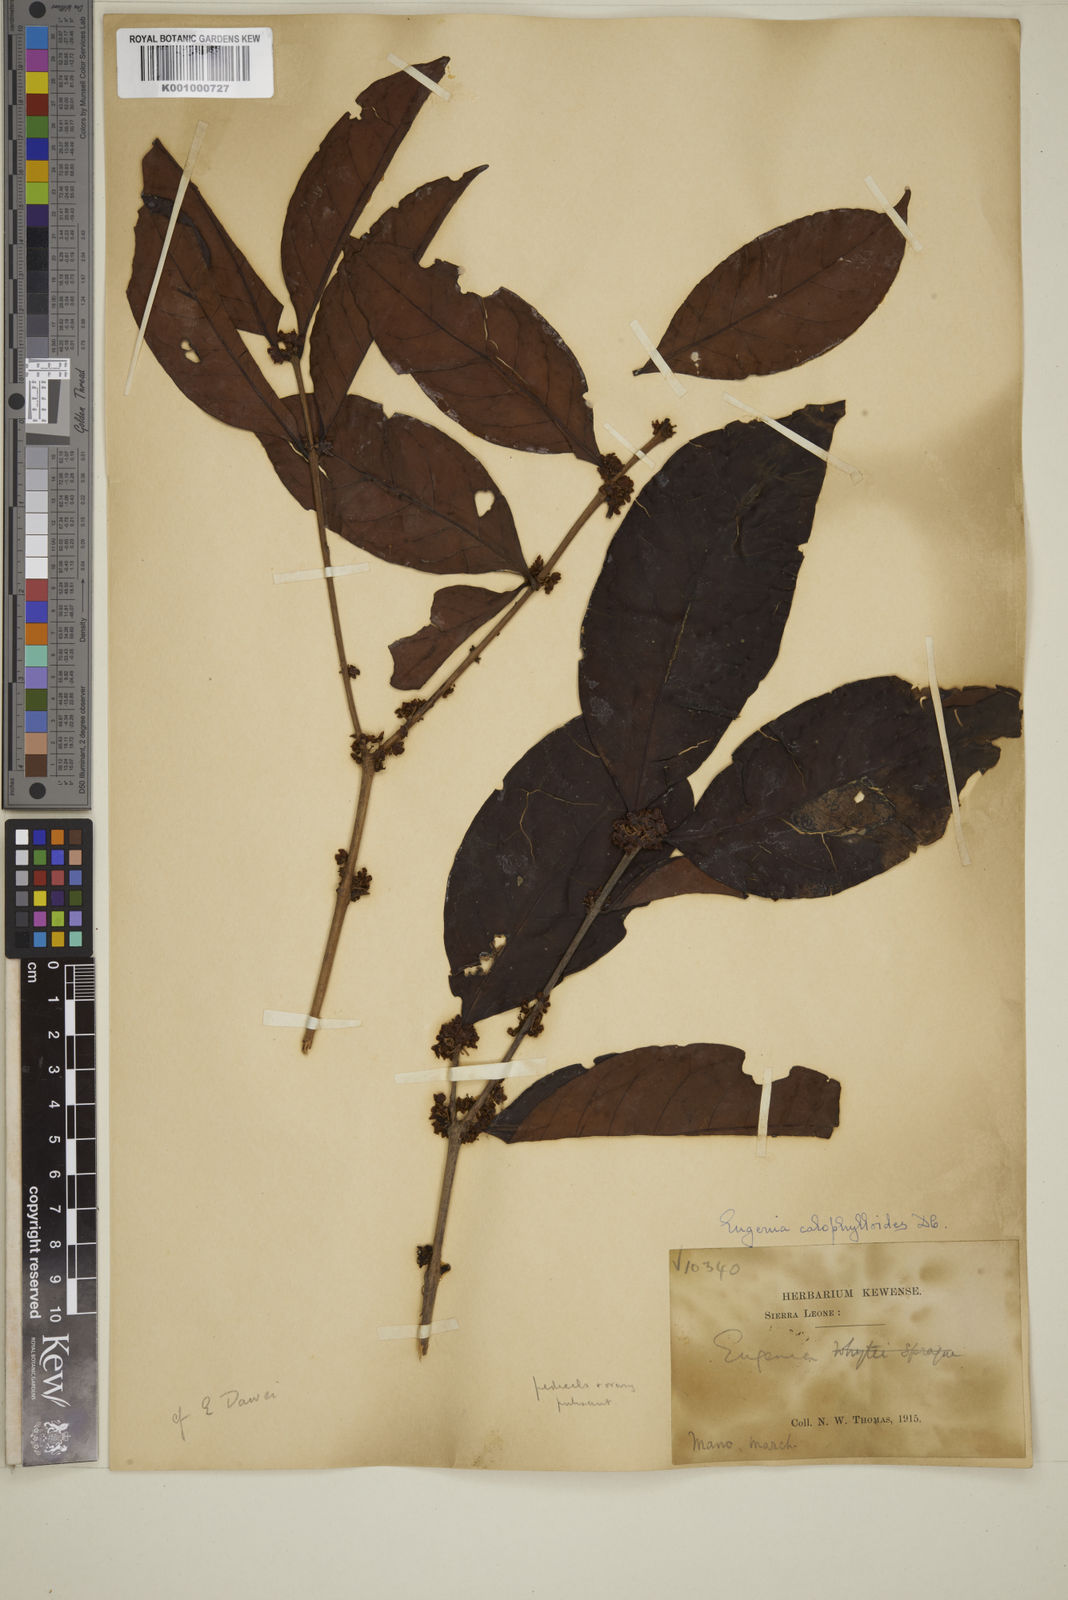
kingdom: Plantae
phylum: Tracheophyta
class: Magnoliopsida
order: Myrtales
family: Myrtaceae
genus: Eugenia
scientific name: Eugenia calophylloides
